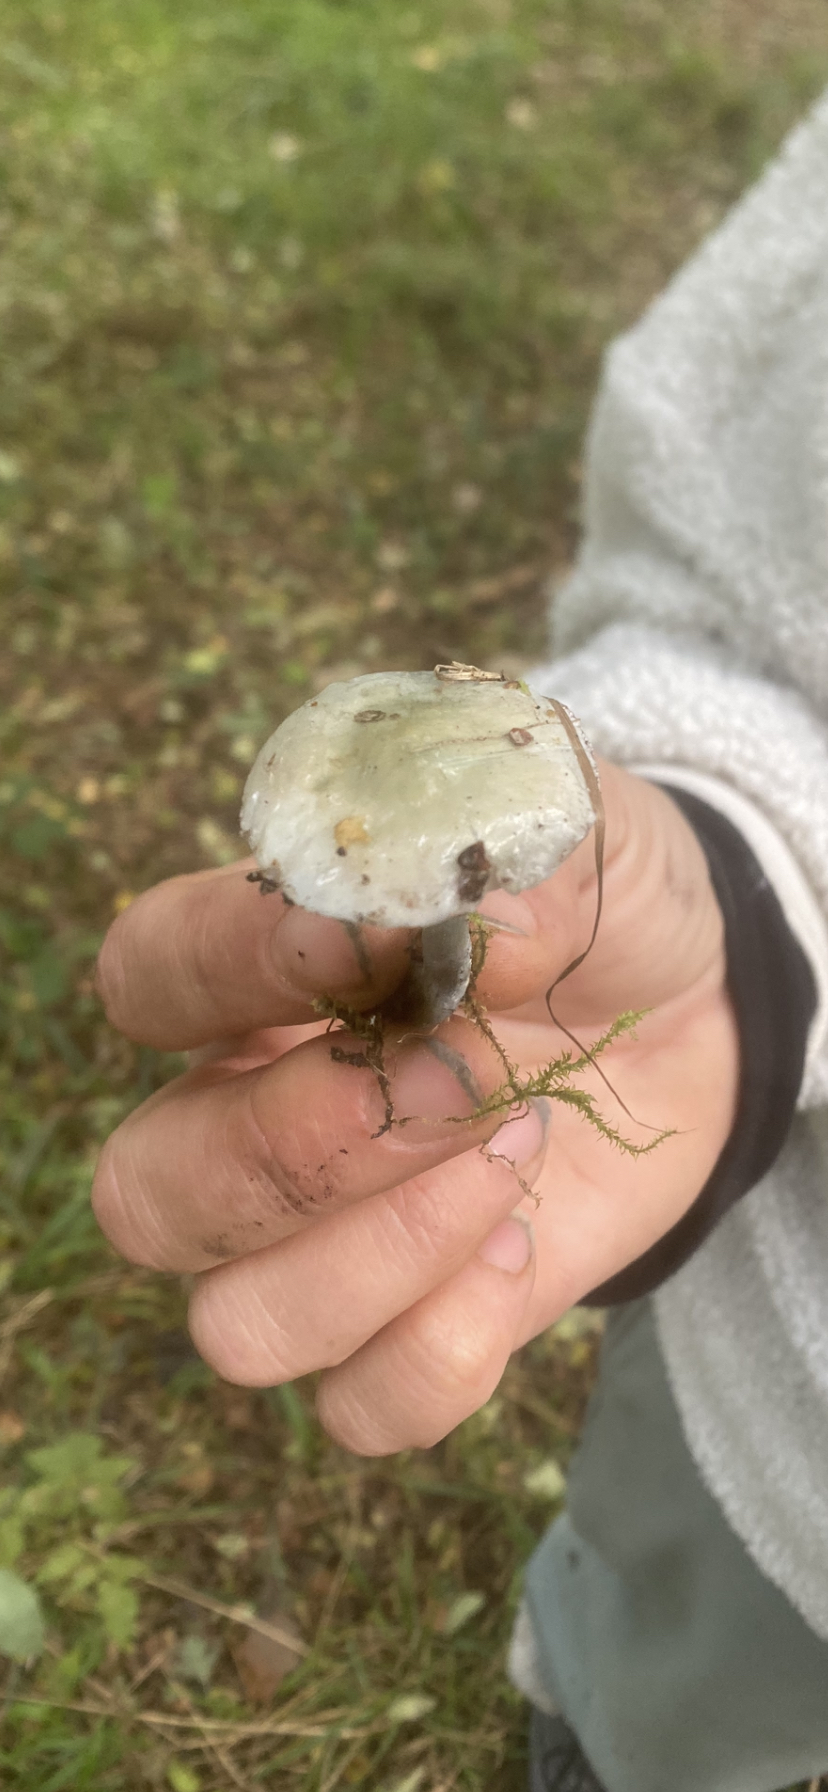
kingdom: Fungi
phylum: Basidiomycota
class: Agaricomycetes
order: Agaricales
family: Strophariaceae
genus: Stropharia
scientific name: Stropharia
